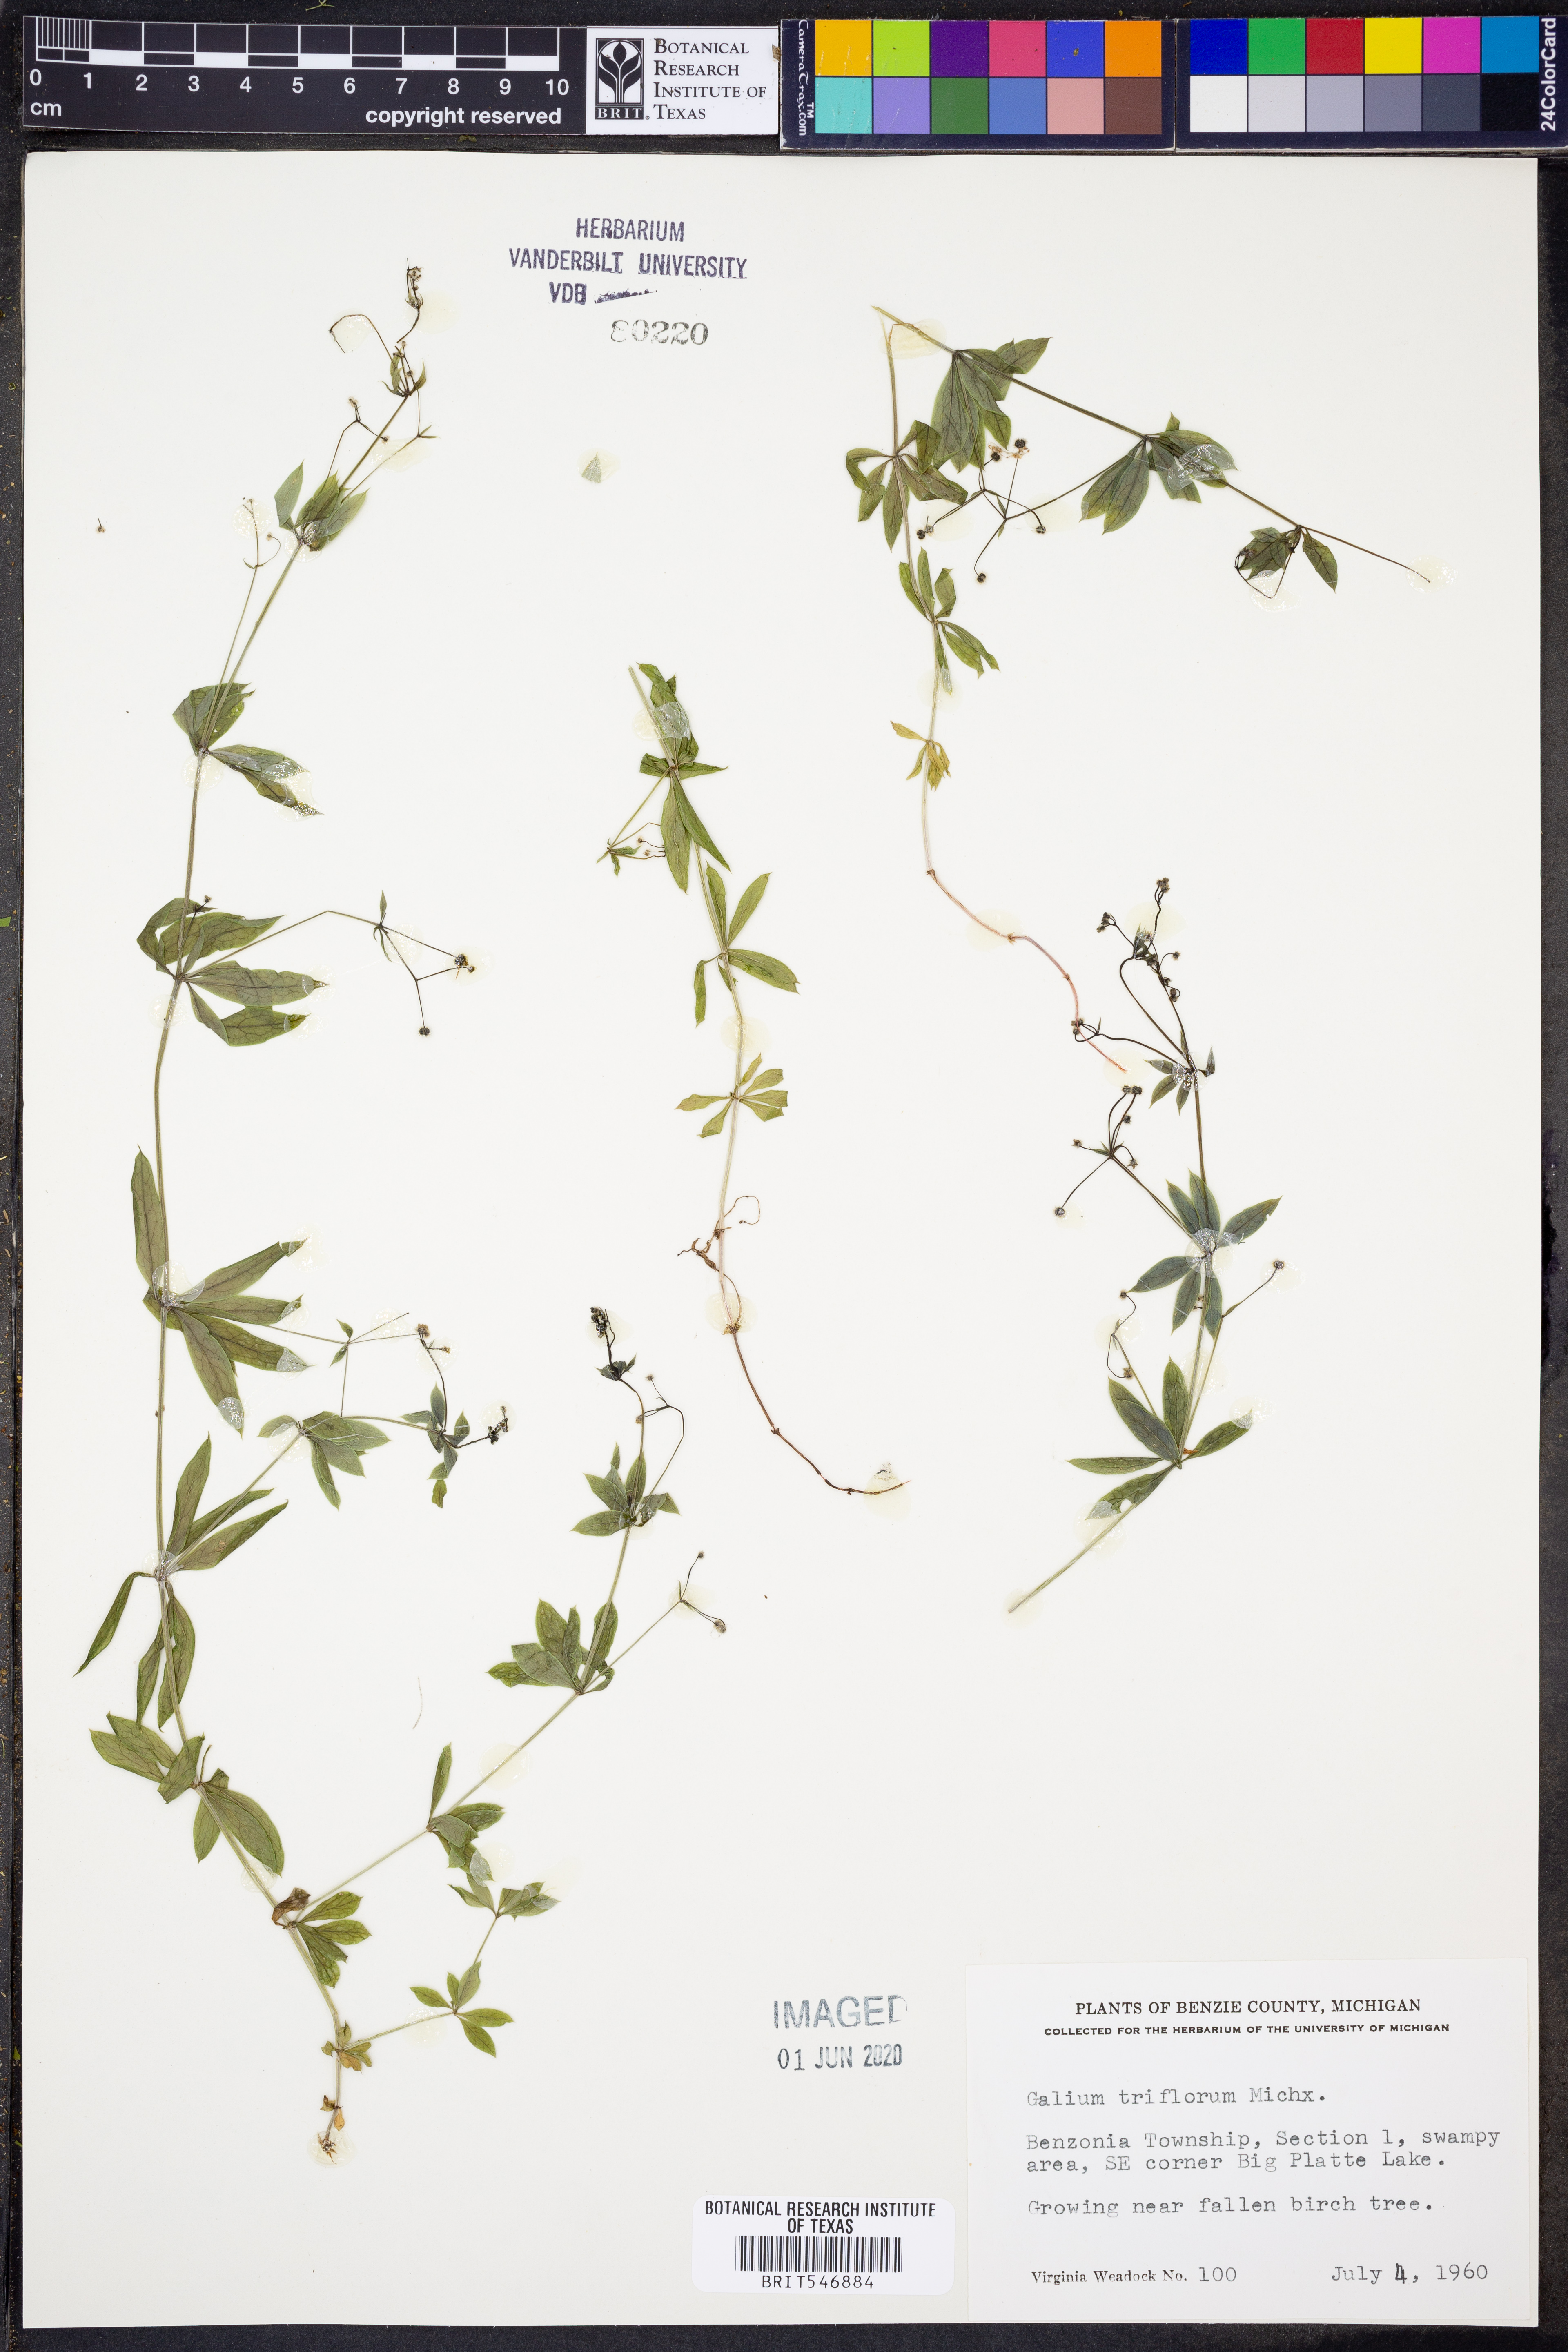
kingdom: Plantae
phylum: Tracheophyta
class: Magnoliopsida
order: Gentianales
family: Rubiaceae
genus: Galium
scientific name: Galium triflorum
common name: Fragrant bedstraw
